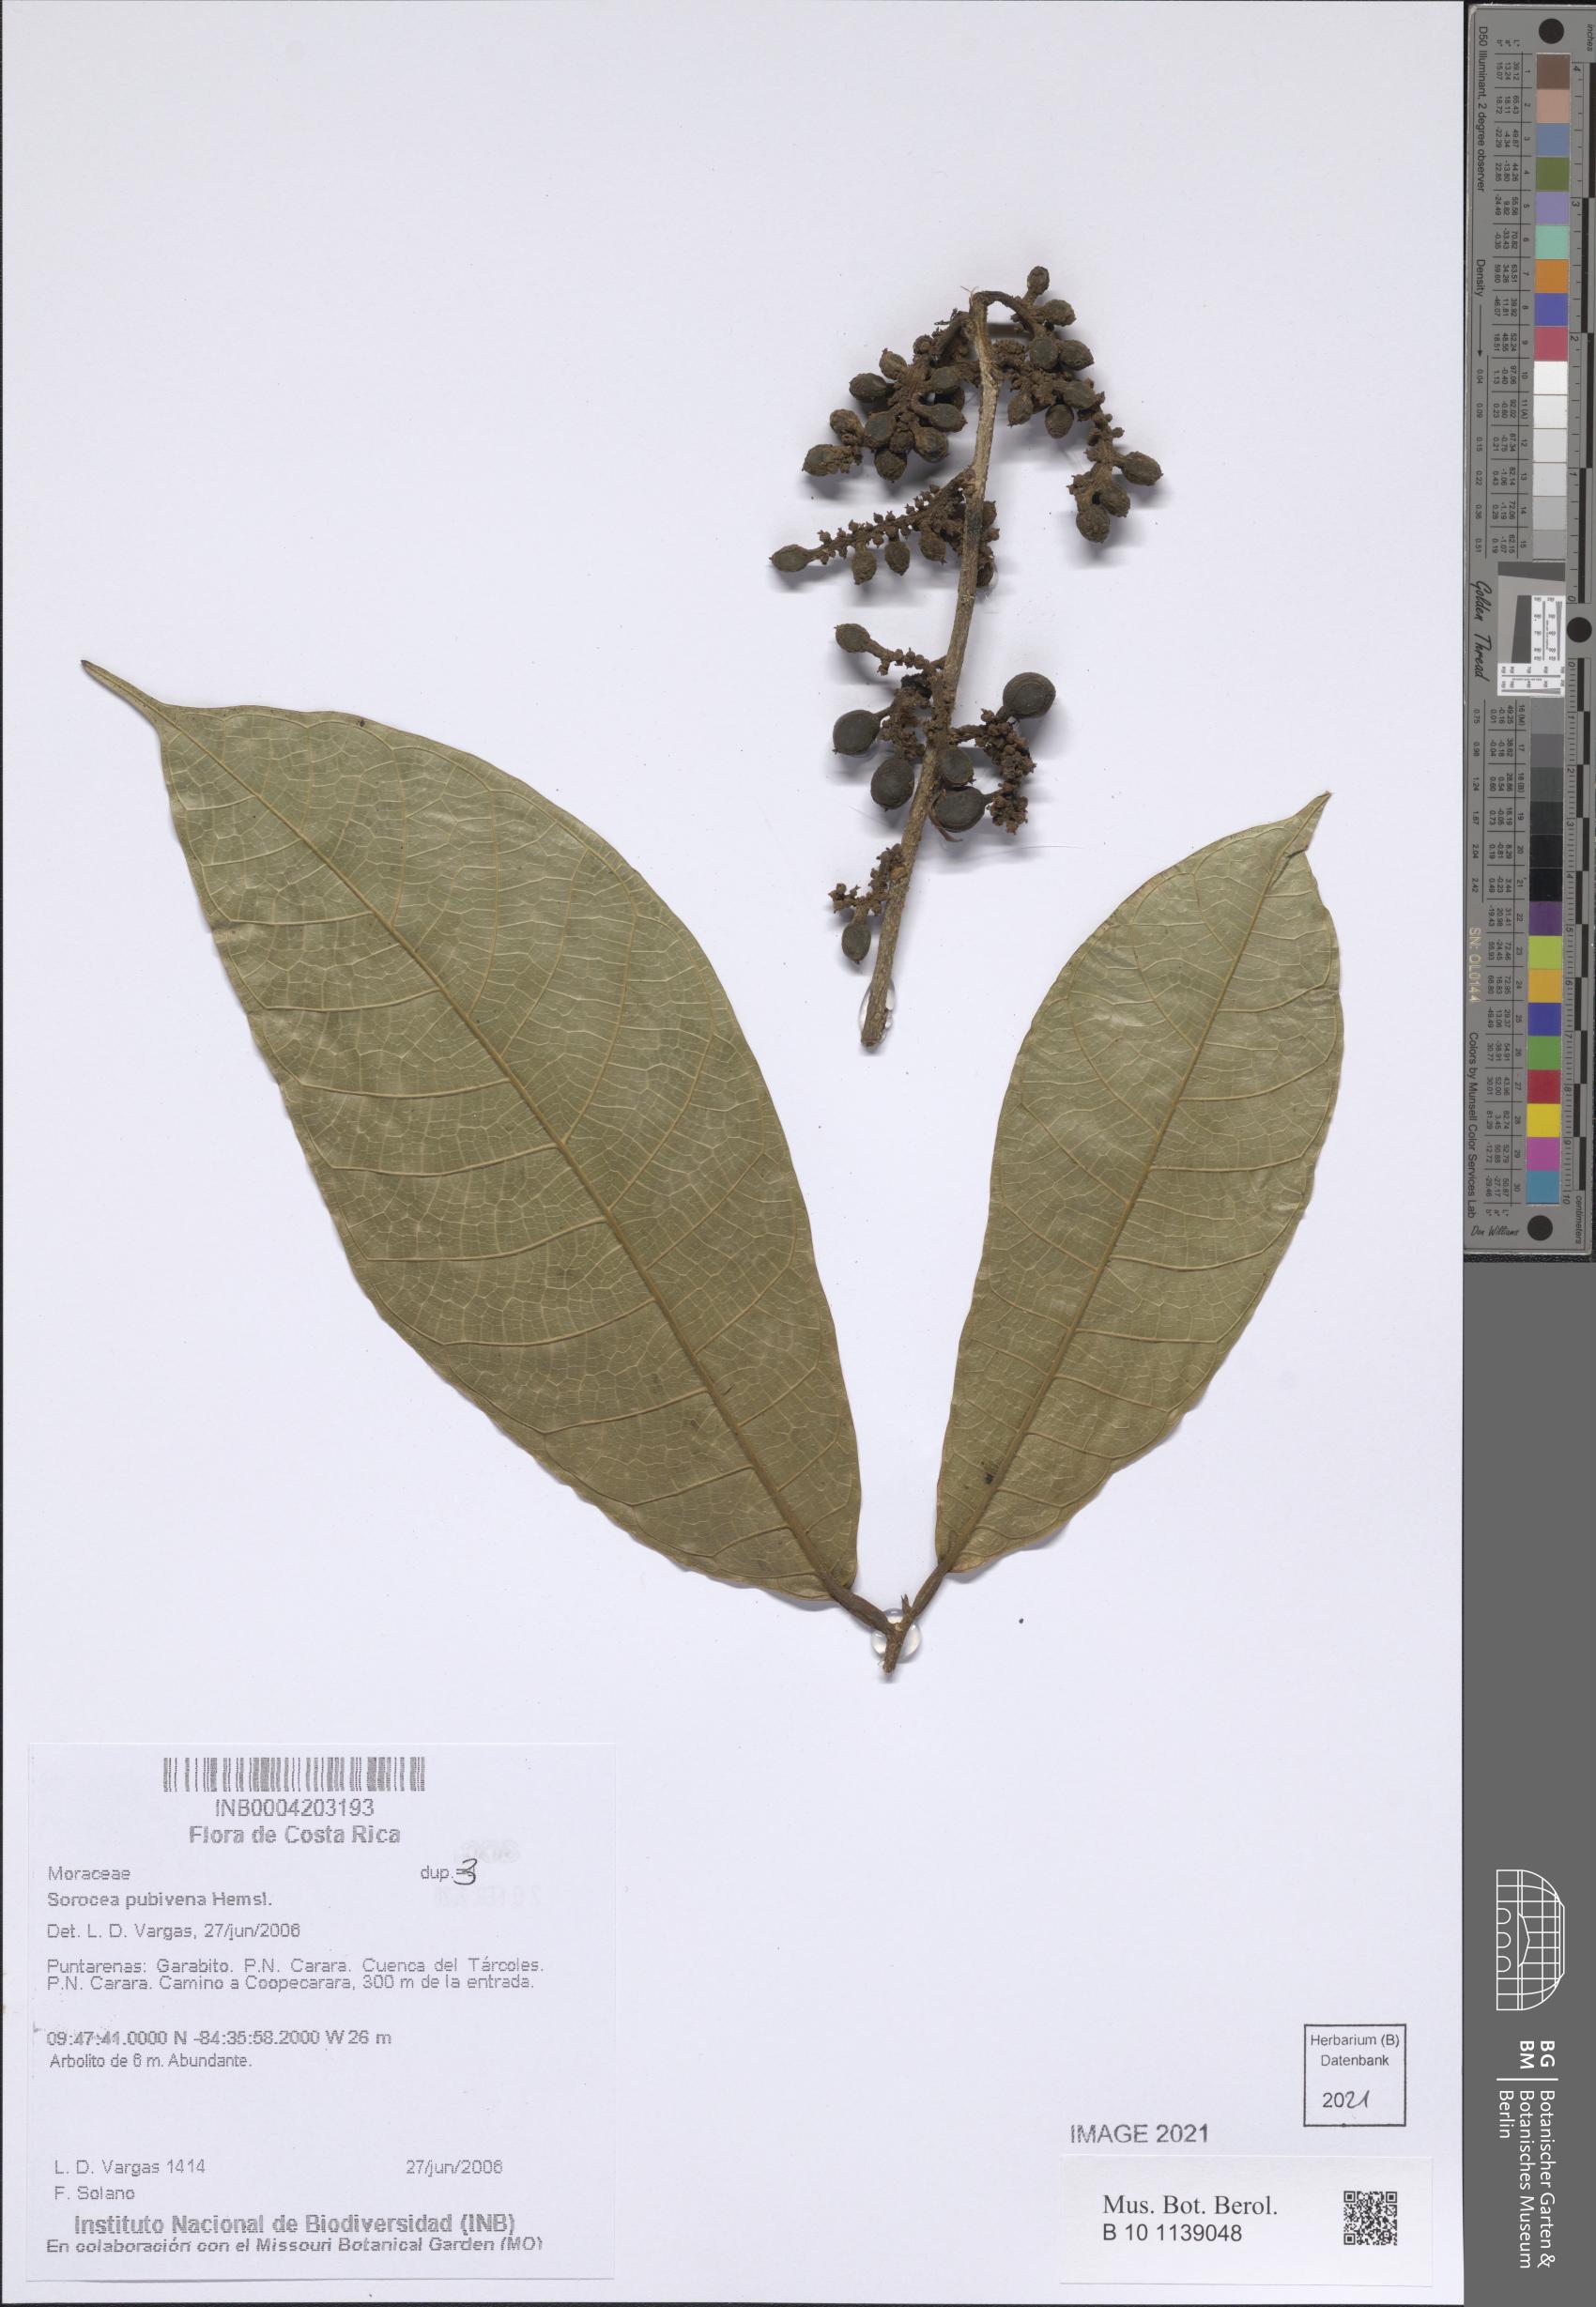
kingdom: Plantae
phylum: Tracheophyta
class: Magnoliopsida
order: Rosales
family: Moraceae
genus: Sorocea
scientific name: Sorocea pubivena
